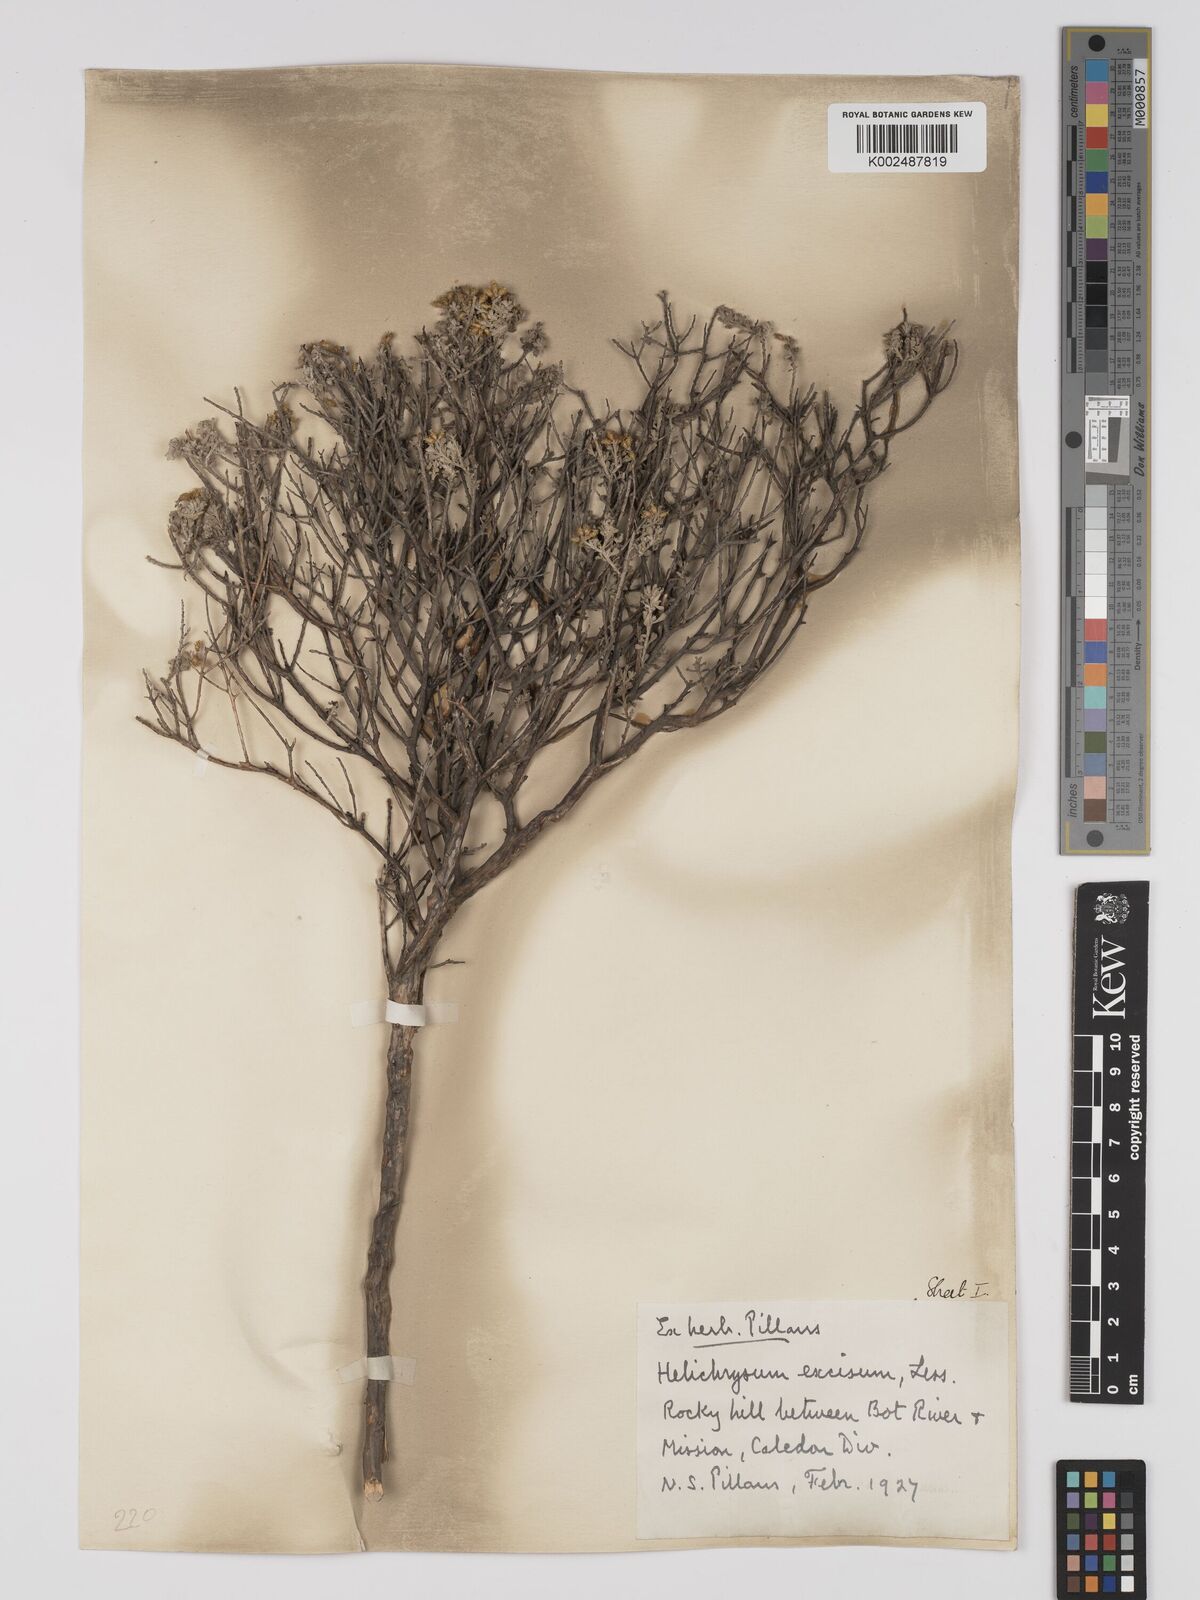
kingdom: Plantae
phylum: Tracheophyta
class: Magnoliopsida
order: Asterales
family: Asteraceae
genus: Helichrysum
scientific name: Helichrysum excisum
